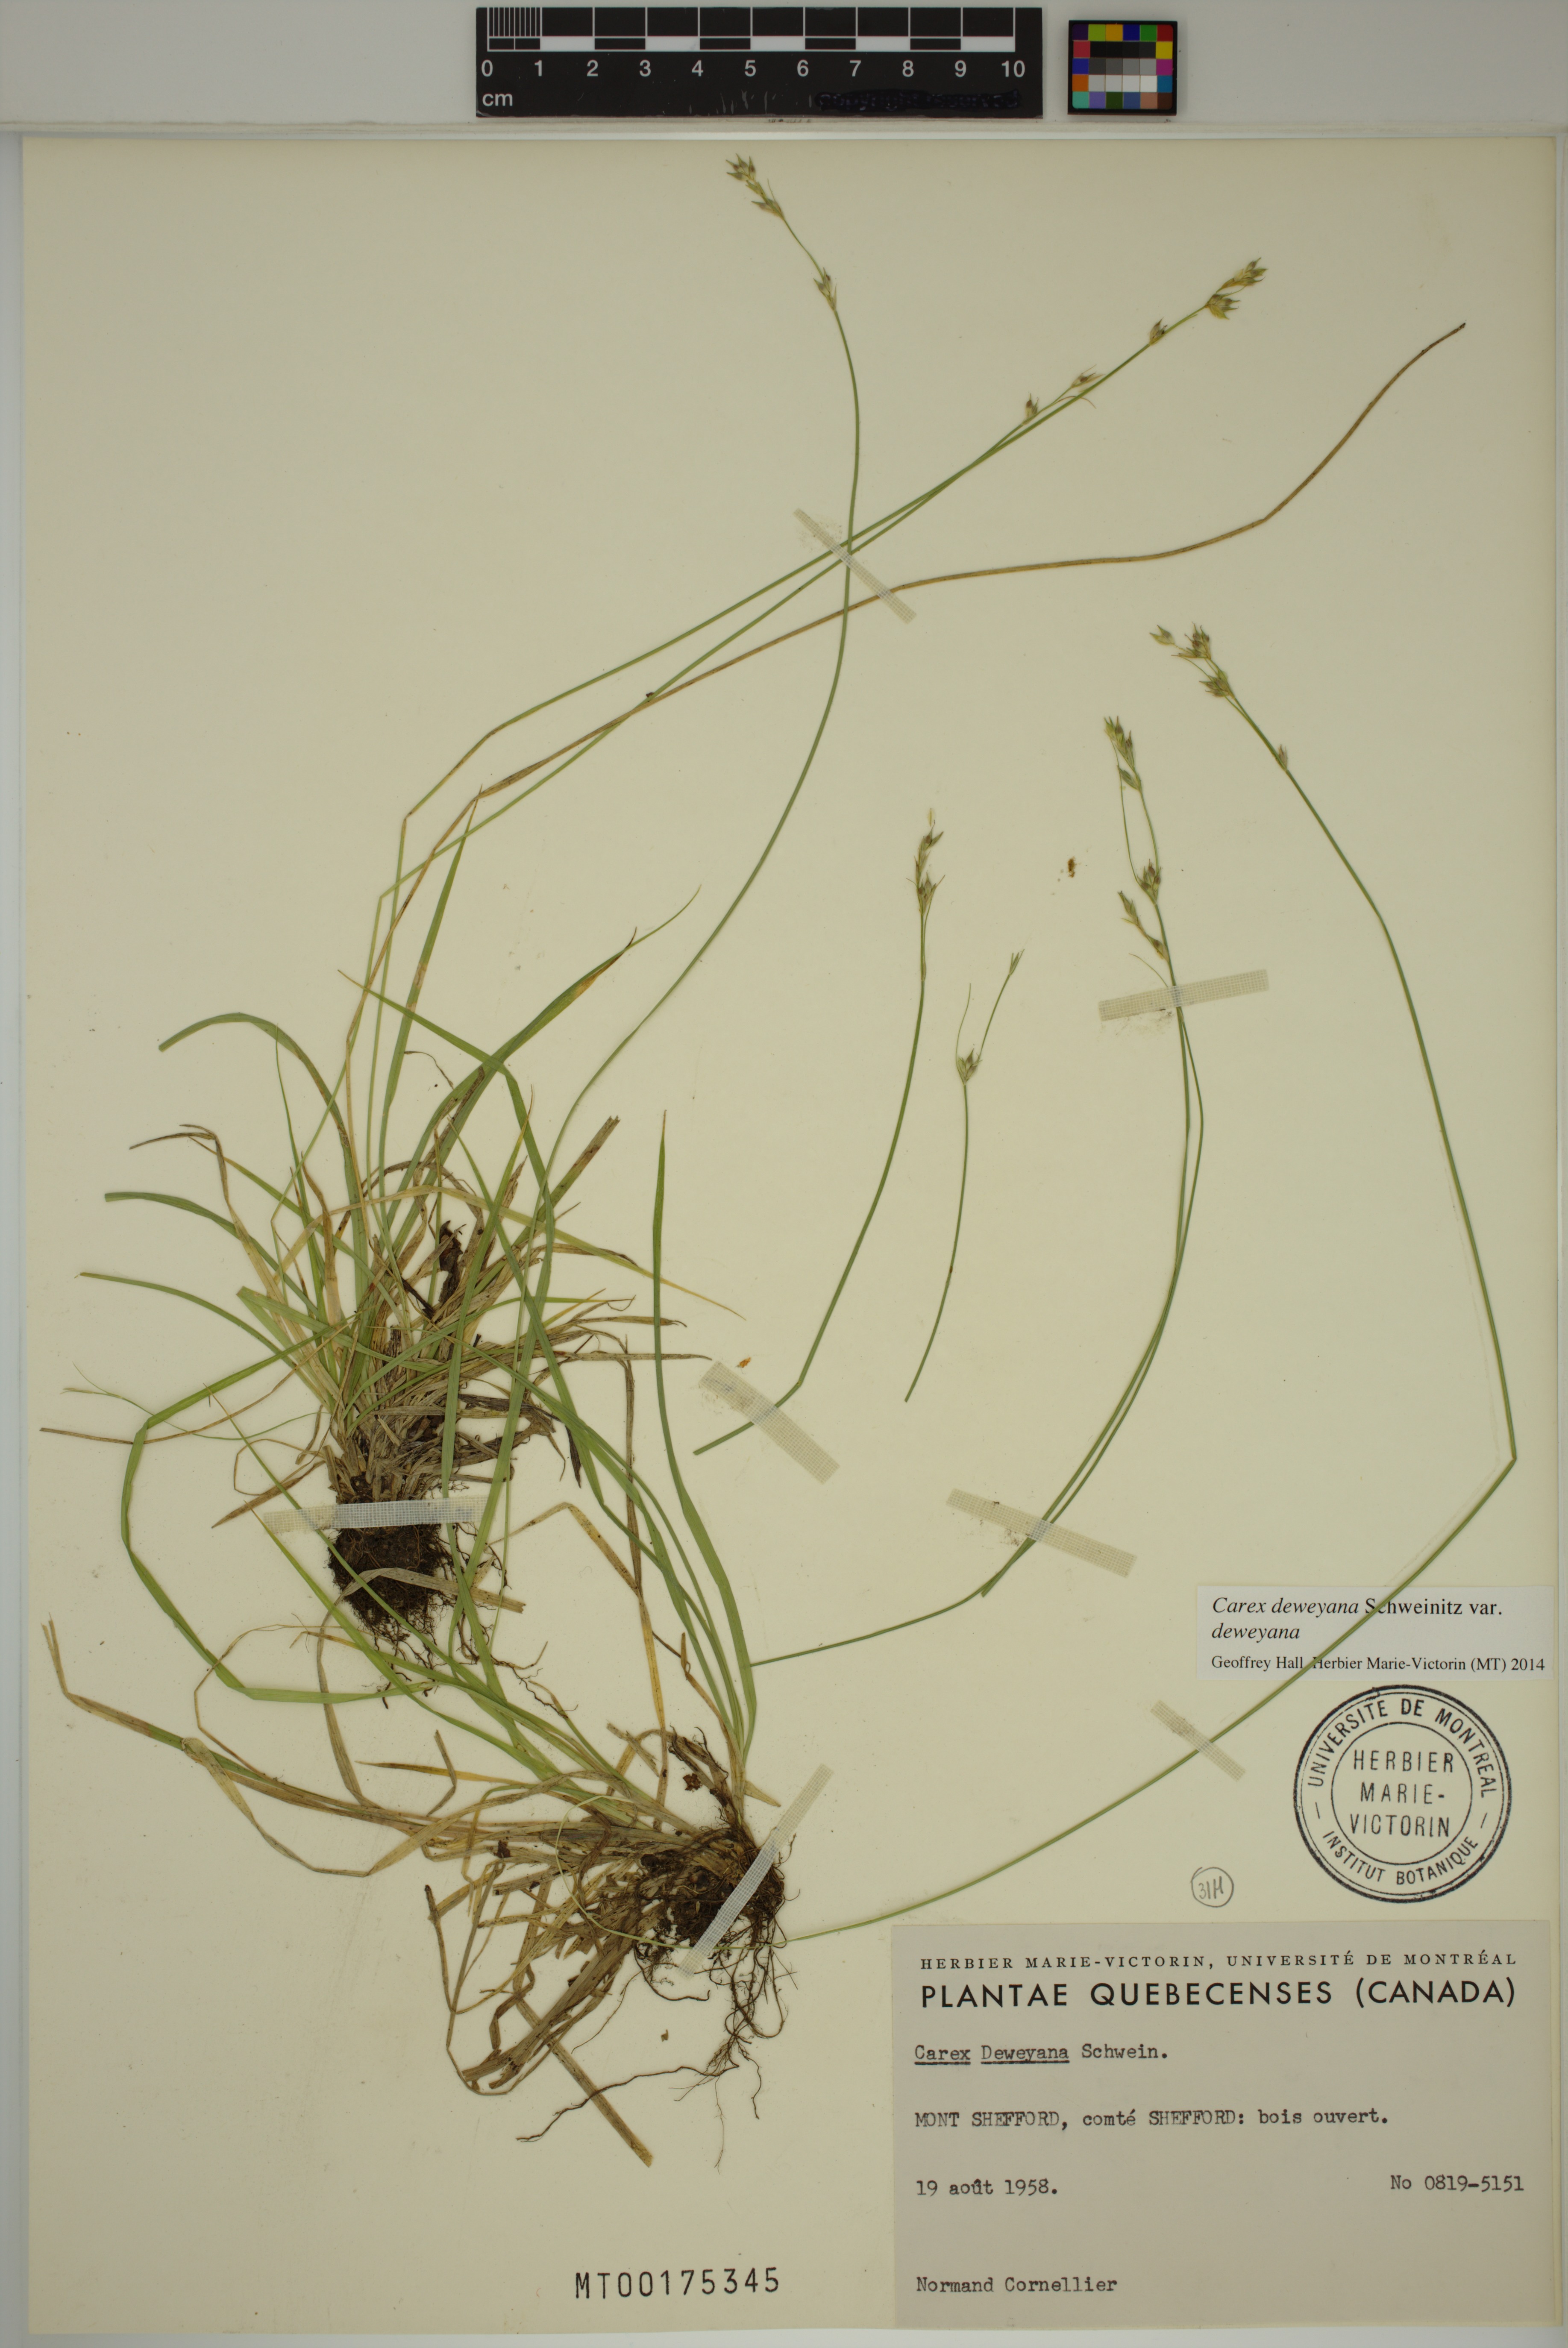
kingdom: Plantae
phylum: Tracheophyta
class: Liliopsida
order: Poales
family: Cyperaceae
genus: Carex
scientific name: Carex deweyana
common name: Dewey's sedge
